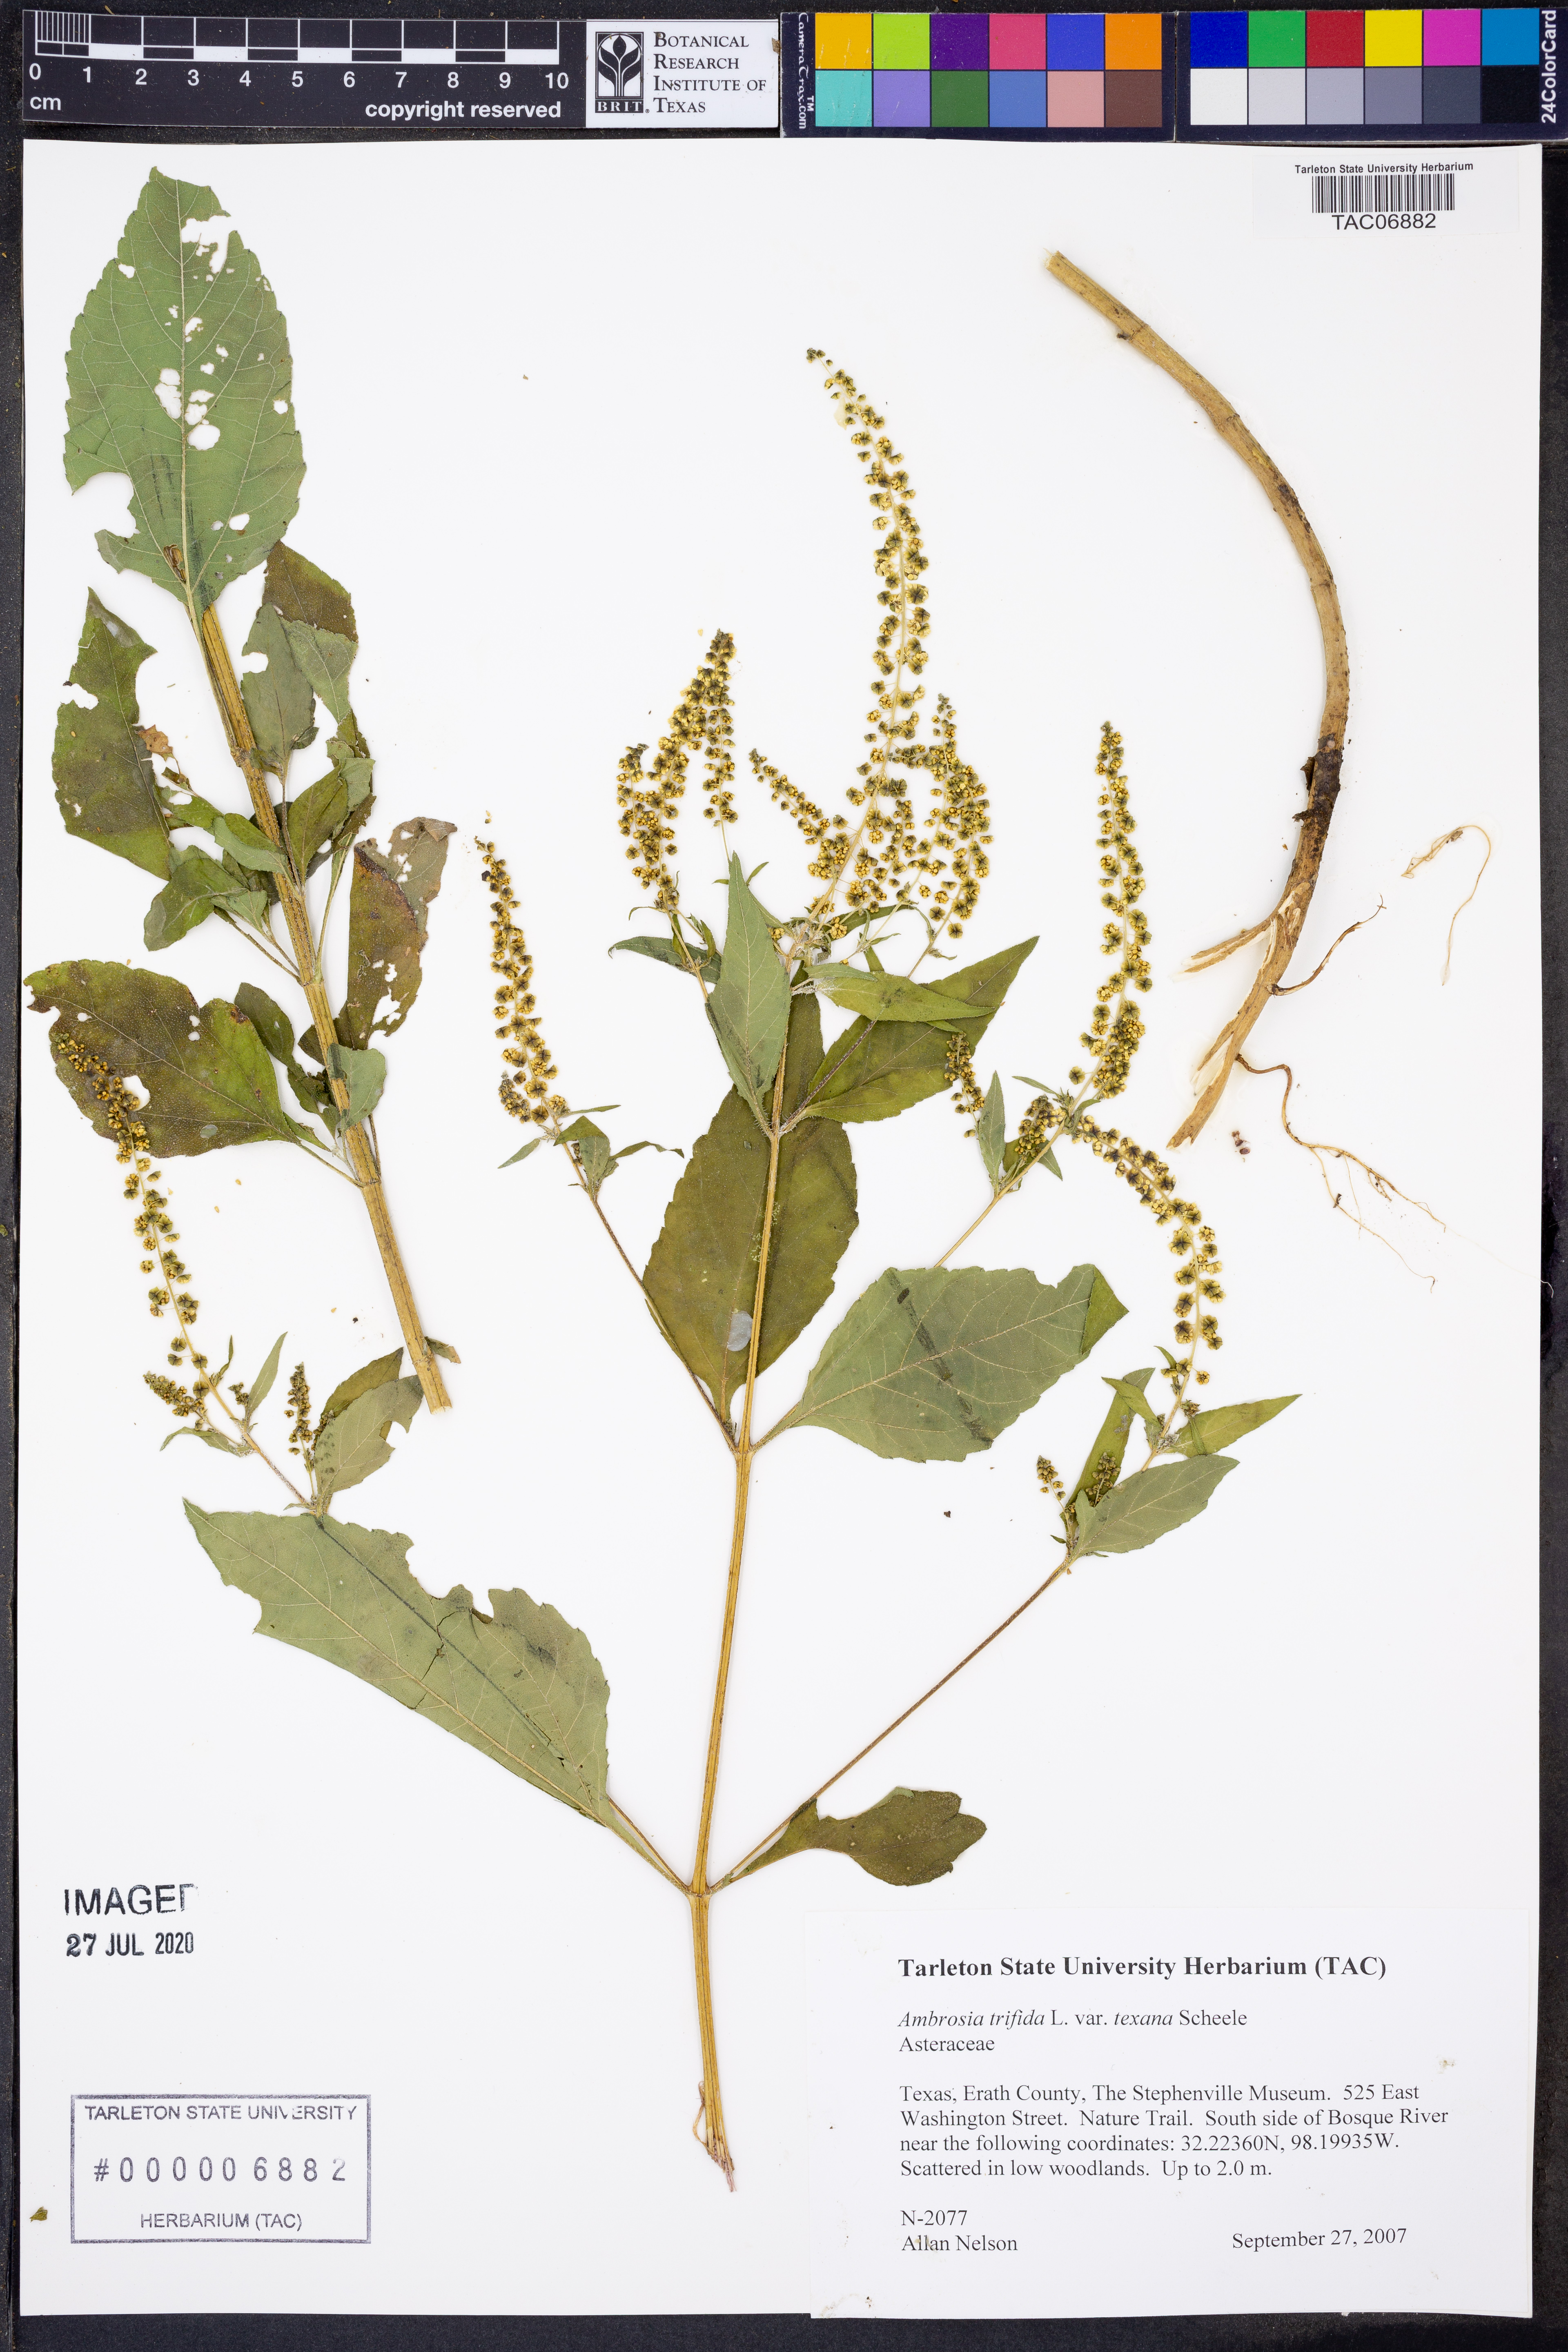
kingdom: Plantae
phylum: Tracheophyta
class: Magnoliopsida
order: Asterales
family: Asteraceae
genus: Ambrosia
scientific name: Ambrosia trifida
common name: Giant ragweed
